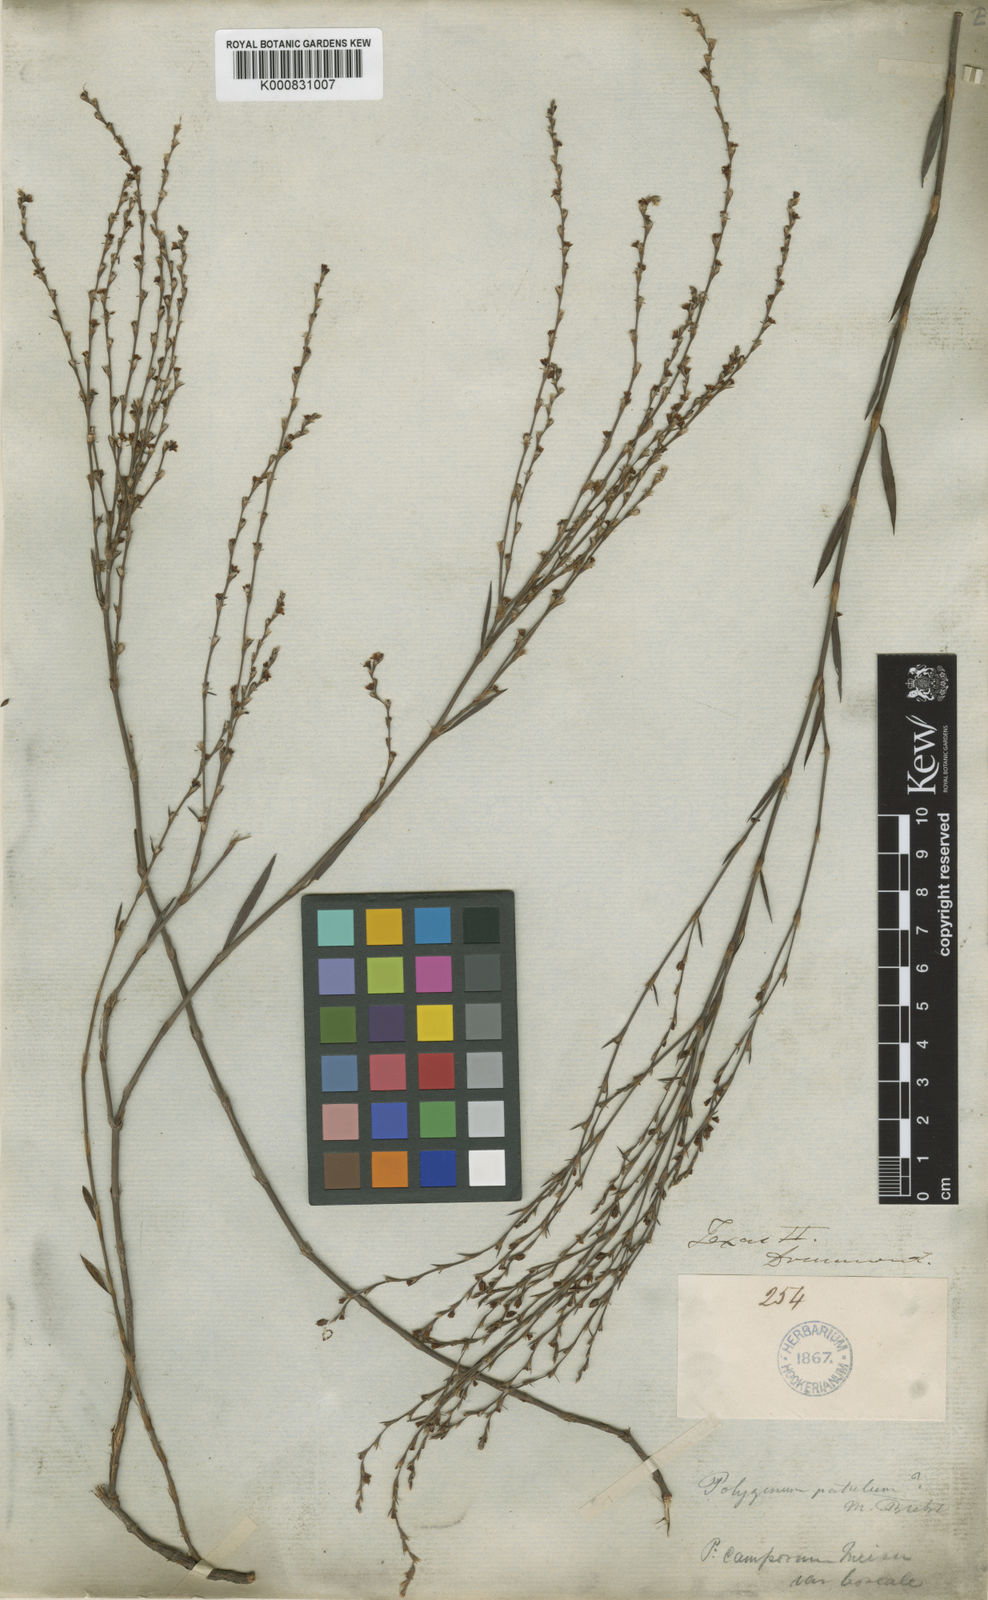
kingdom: Plantae
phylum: Tracheophyta
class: Magnoliopsida
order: Caryophyllales
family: Polygonaceae
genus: Polygonum
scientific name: Polygonum brasiliense
